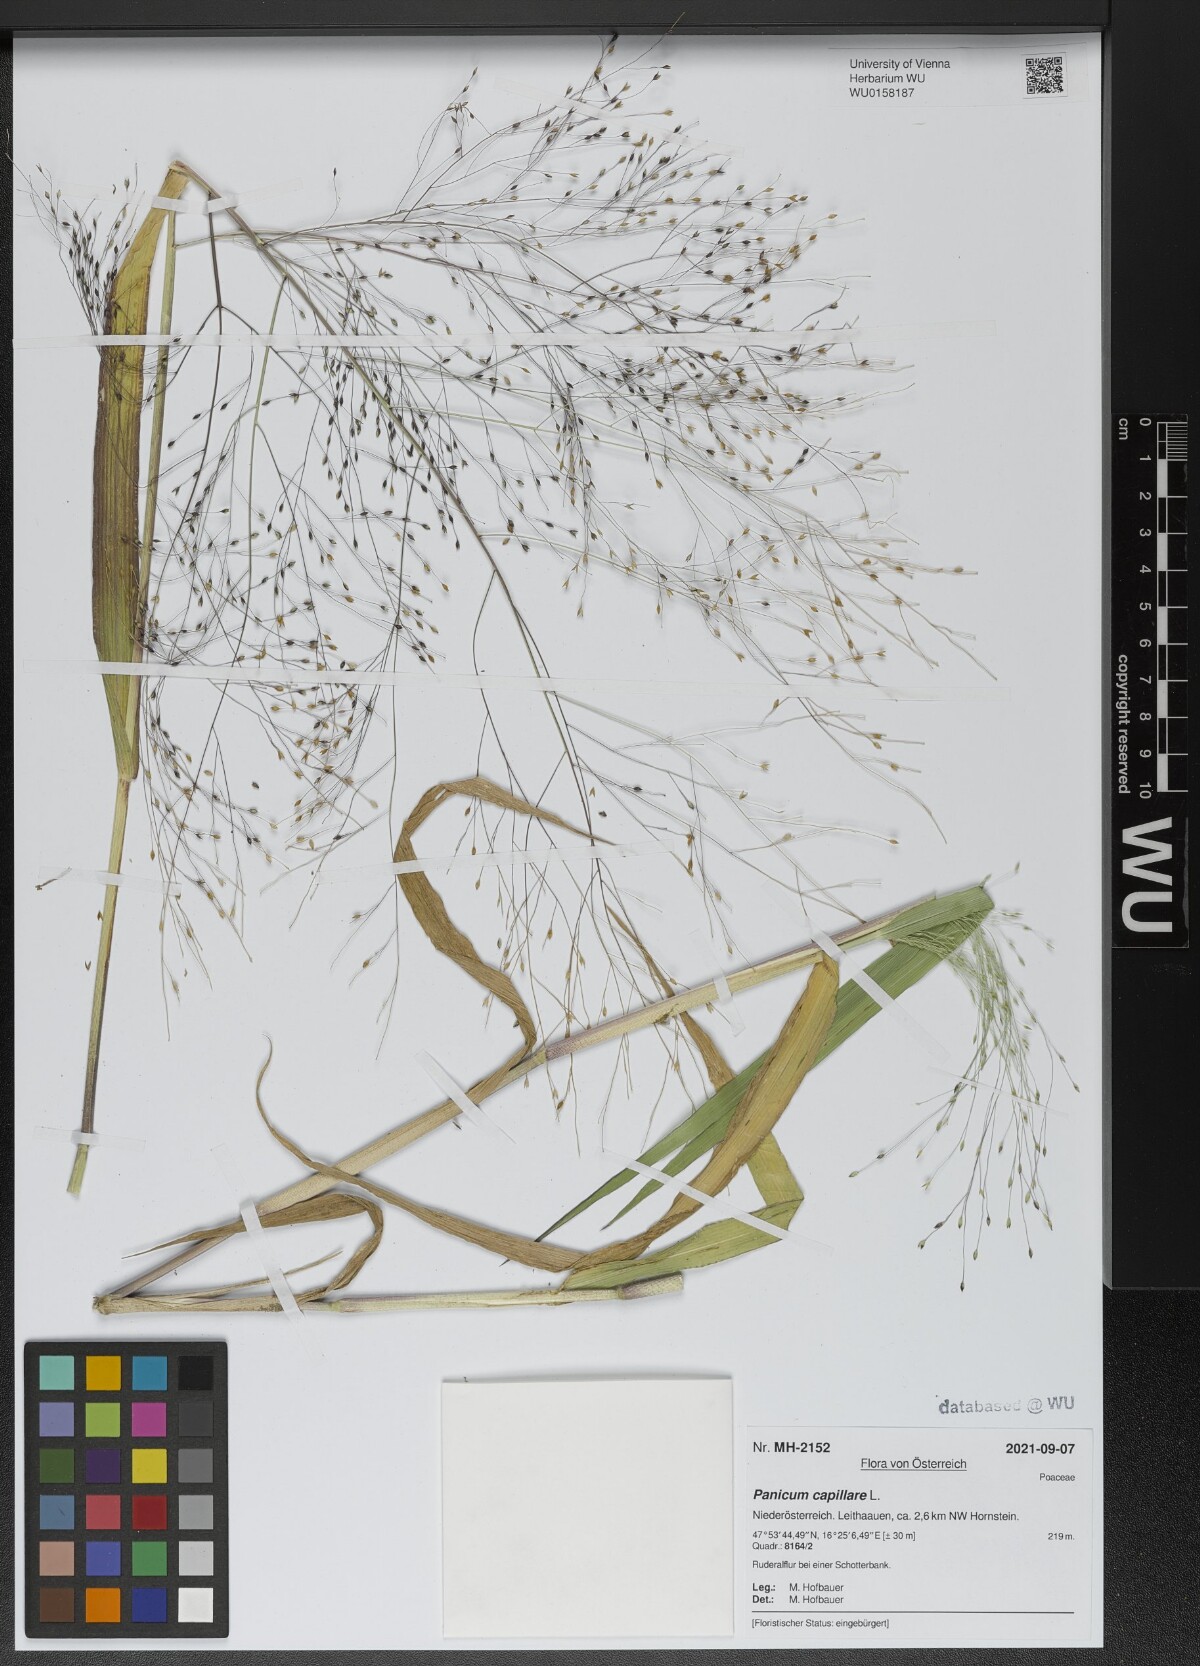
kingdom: Plantae
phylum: Tracheophyta
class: Liliopsida
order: Poales
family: Poaceae
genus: Panicum
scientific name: Panicum capillare
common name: Witch-grass
